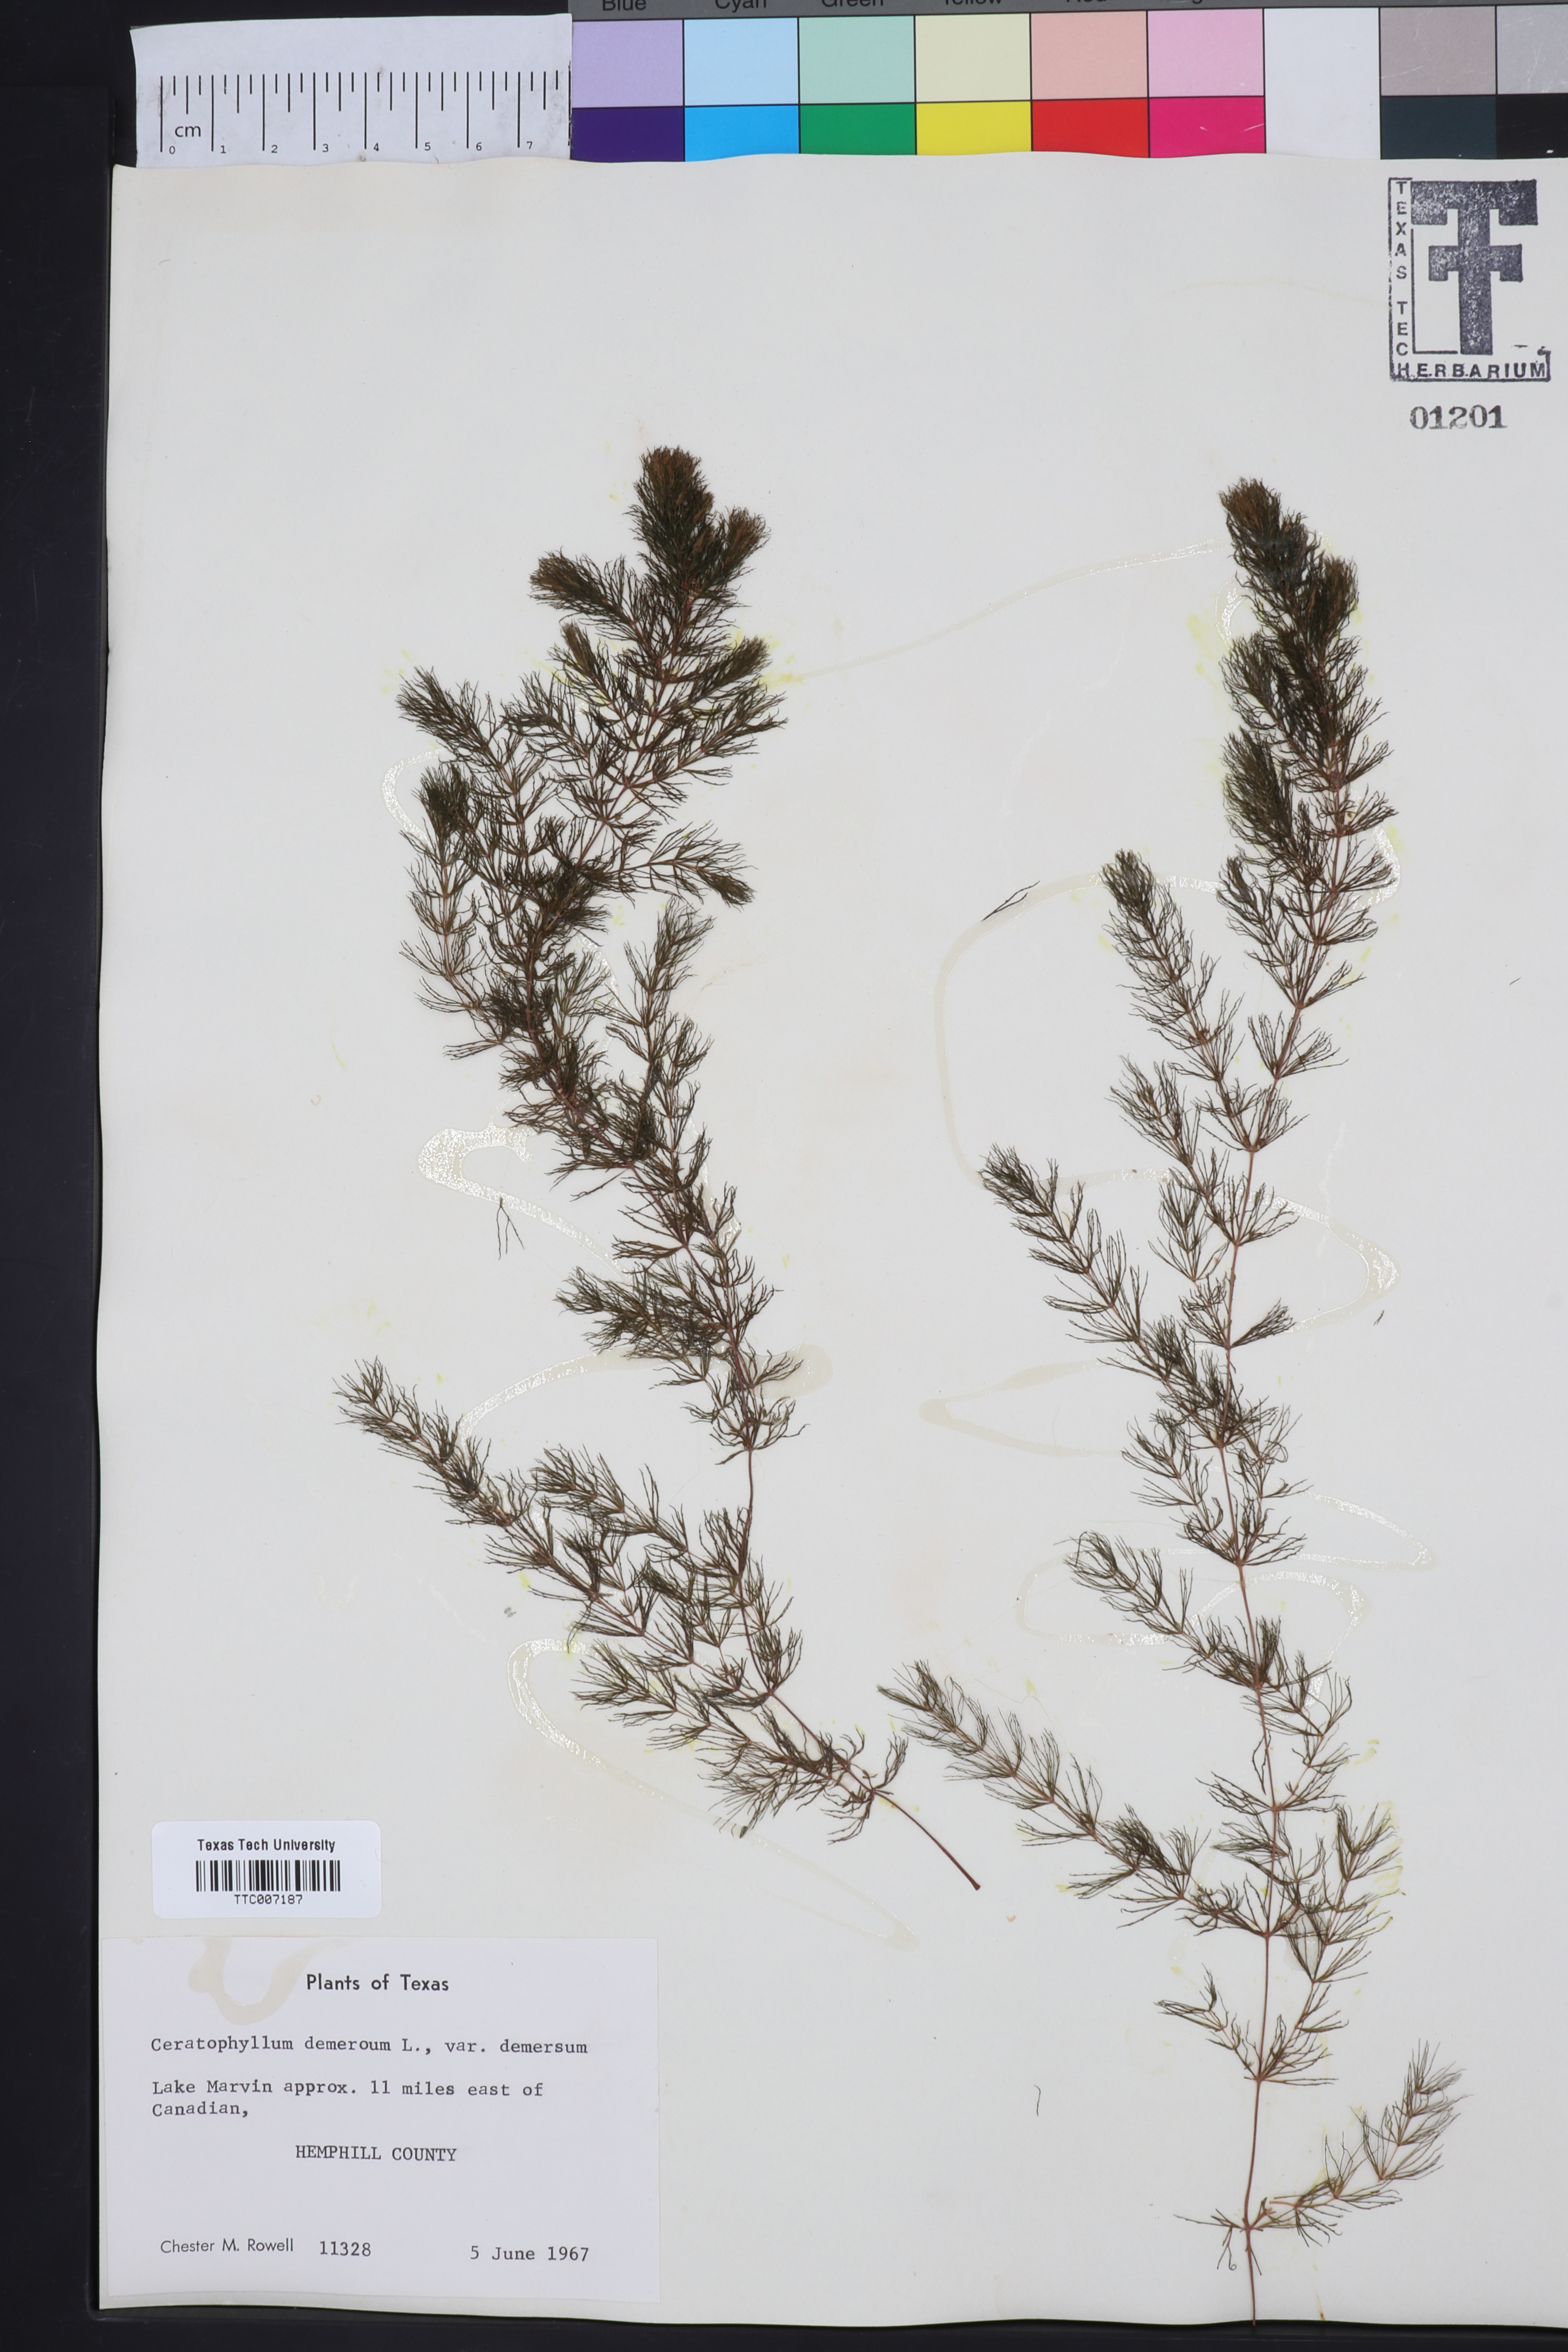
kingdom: Plantae
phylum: Tracheophyta
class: Magnoliopsida
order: Ceratophyllales
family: Ceratophyllaceae
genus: Ceratophyllum
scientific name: Ceratophyllum demersum
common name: Rigid hornwort
